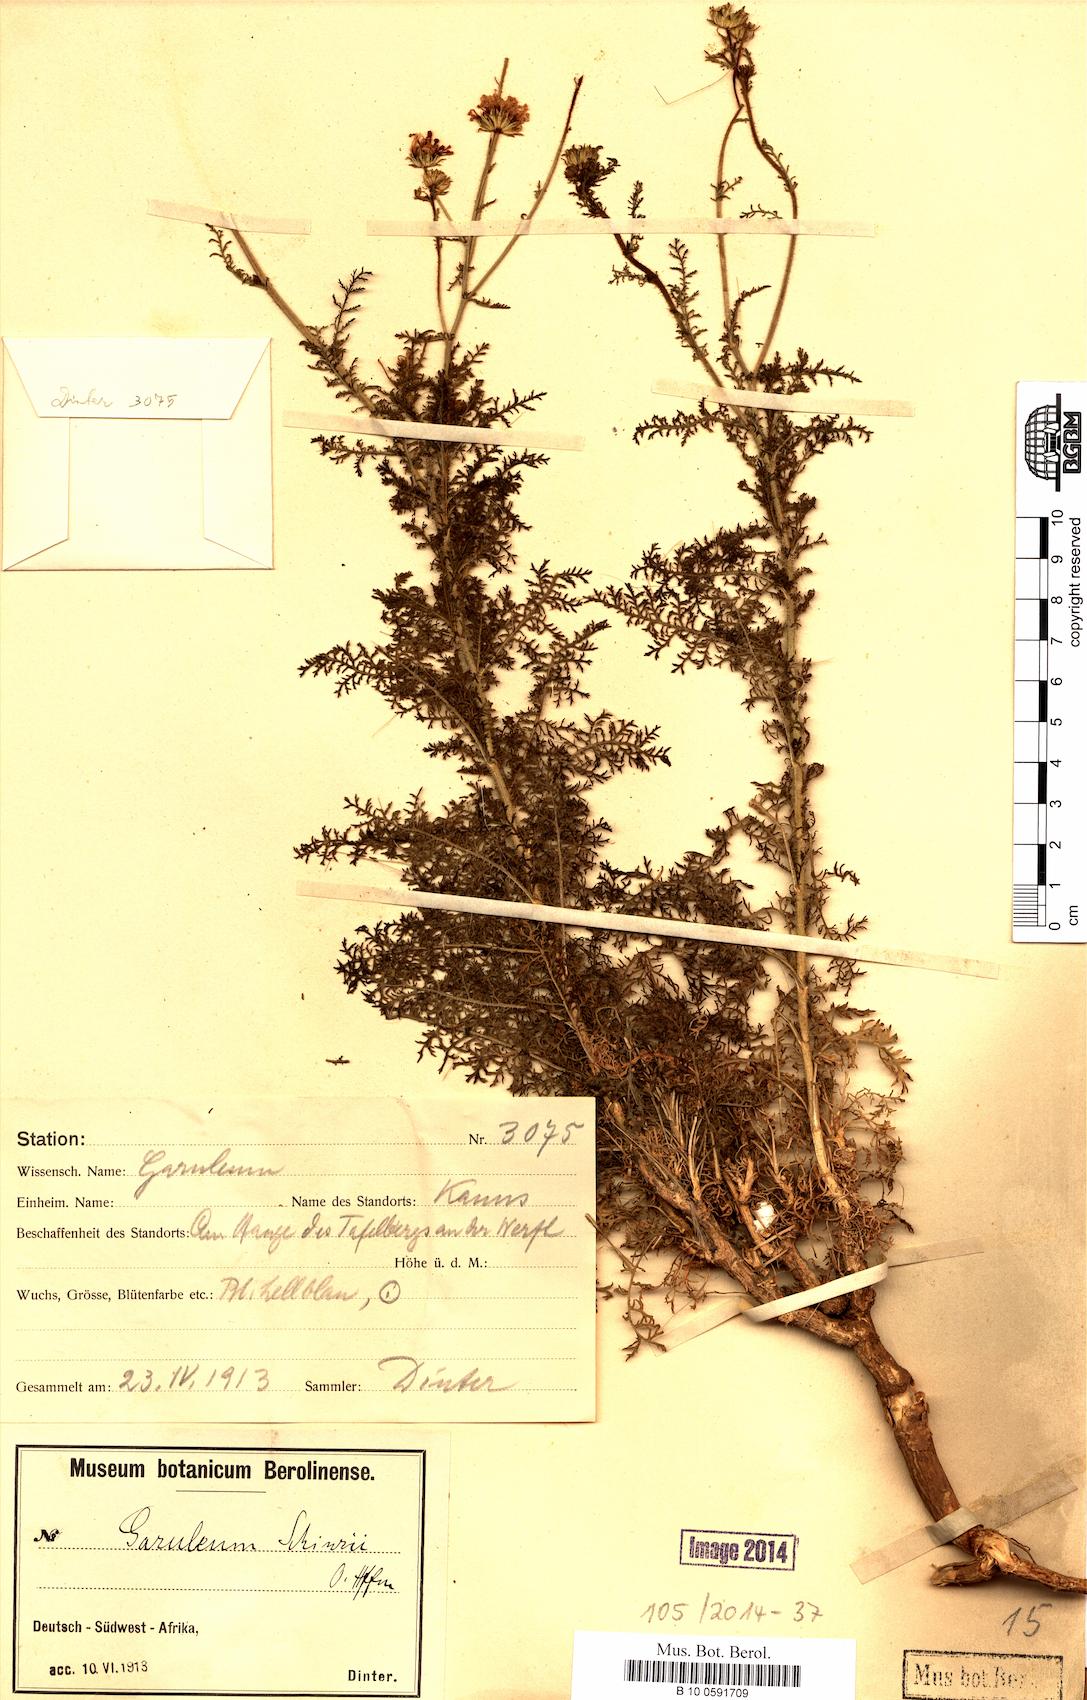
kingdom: Plantae
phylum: Tracheophyta
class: Magnoliopsida
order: Asterales
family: Asteraceae
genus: Garuleum
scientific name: Garuleum schinzii
